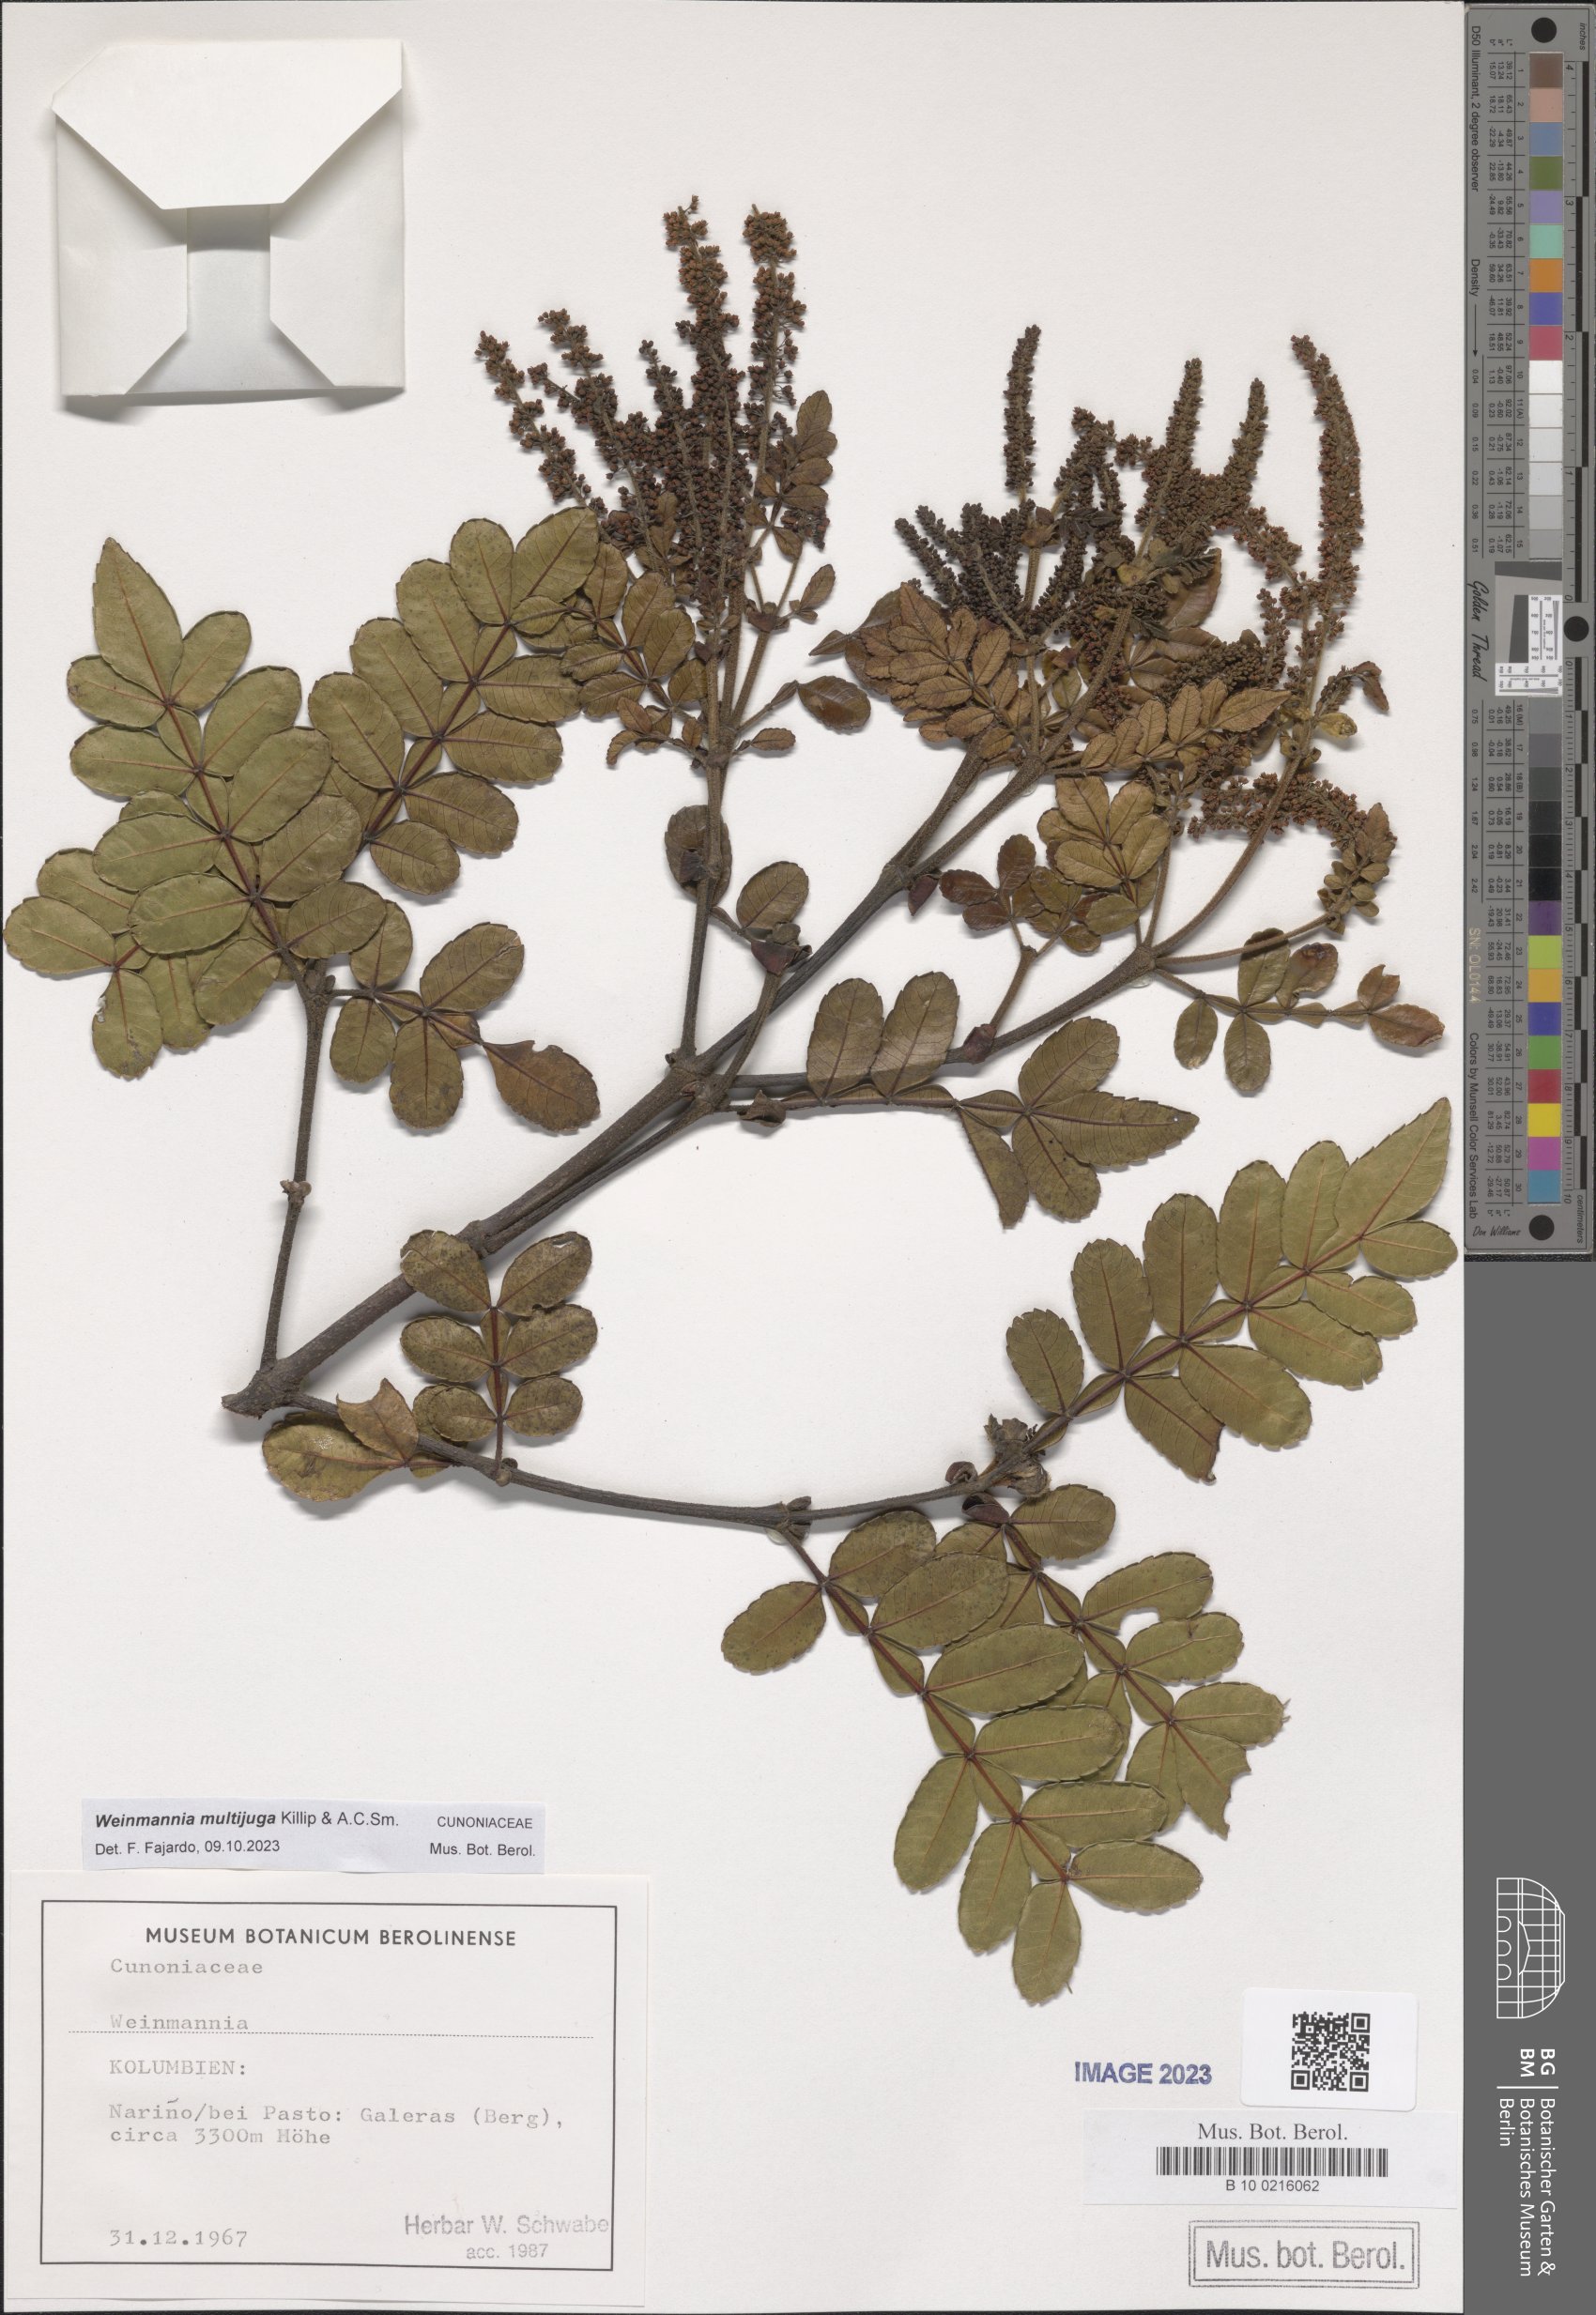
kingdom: Plantae
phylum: Tracheophyta
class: Magnoliopsida
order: Oxalidales
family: Cunoniaceae
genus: Weinmannia
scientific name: Weinmannia multijuga
